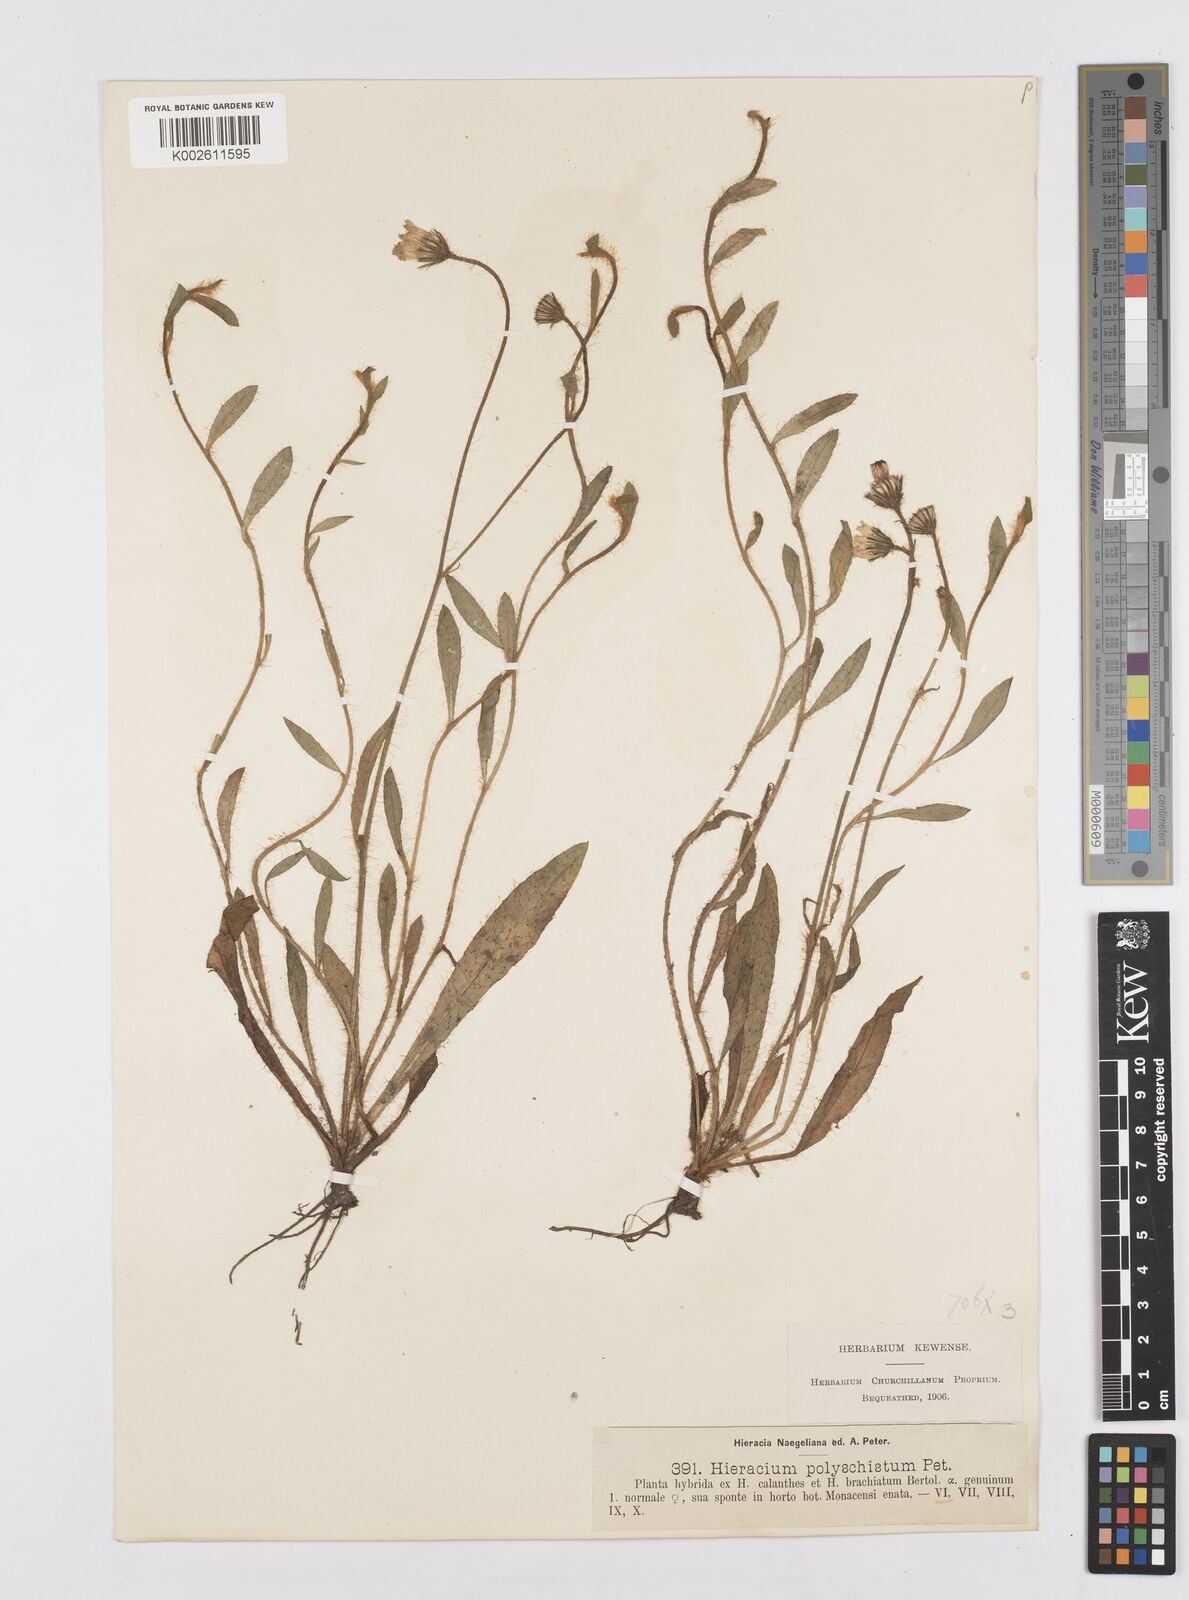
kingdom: Plantae
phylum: Tracheophyta
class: Magnoliopsida
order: Asterales
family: Asteraceae
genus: Pilosella
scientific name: Pilosella acutifolia
